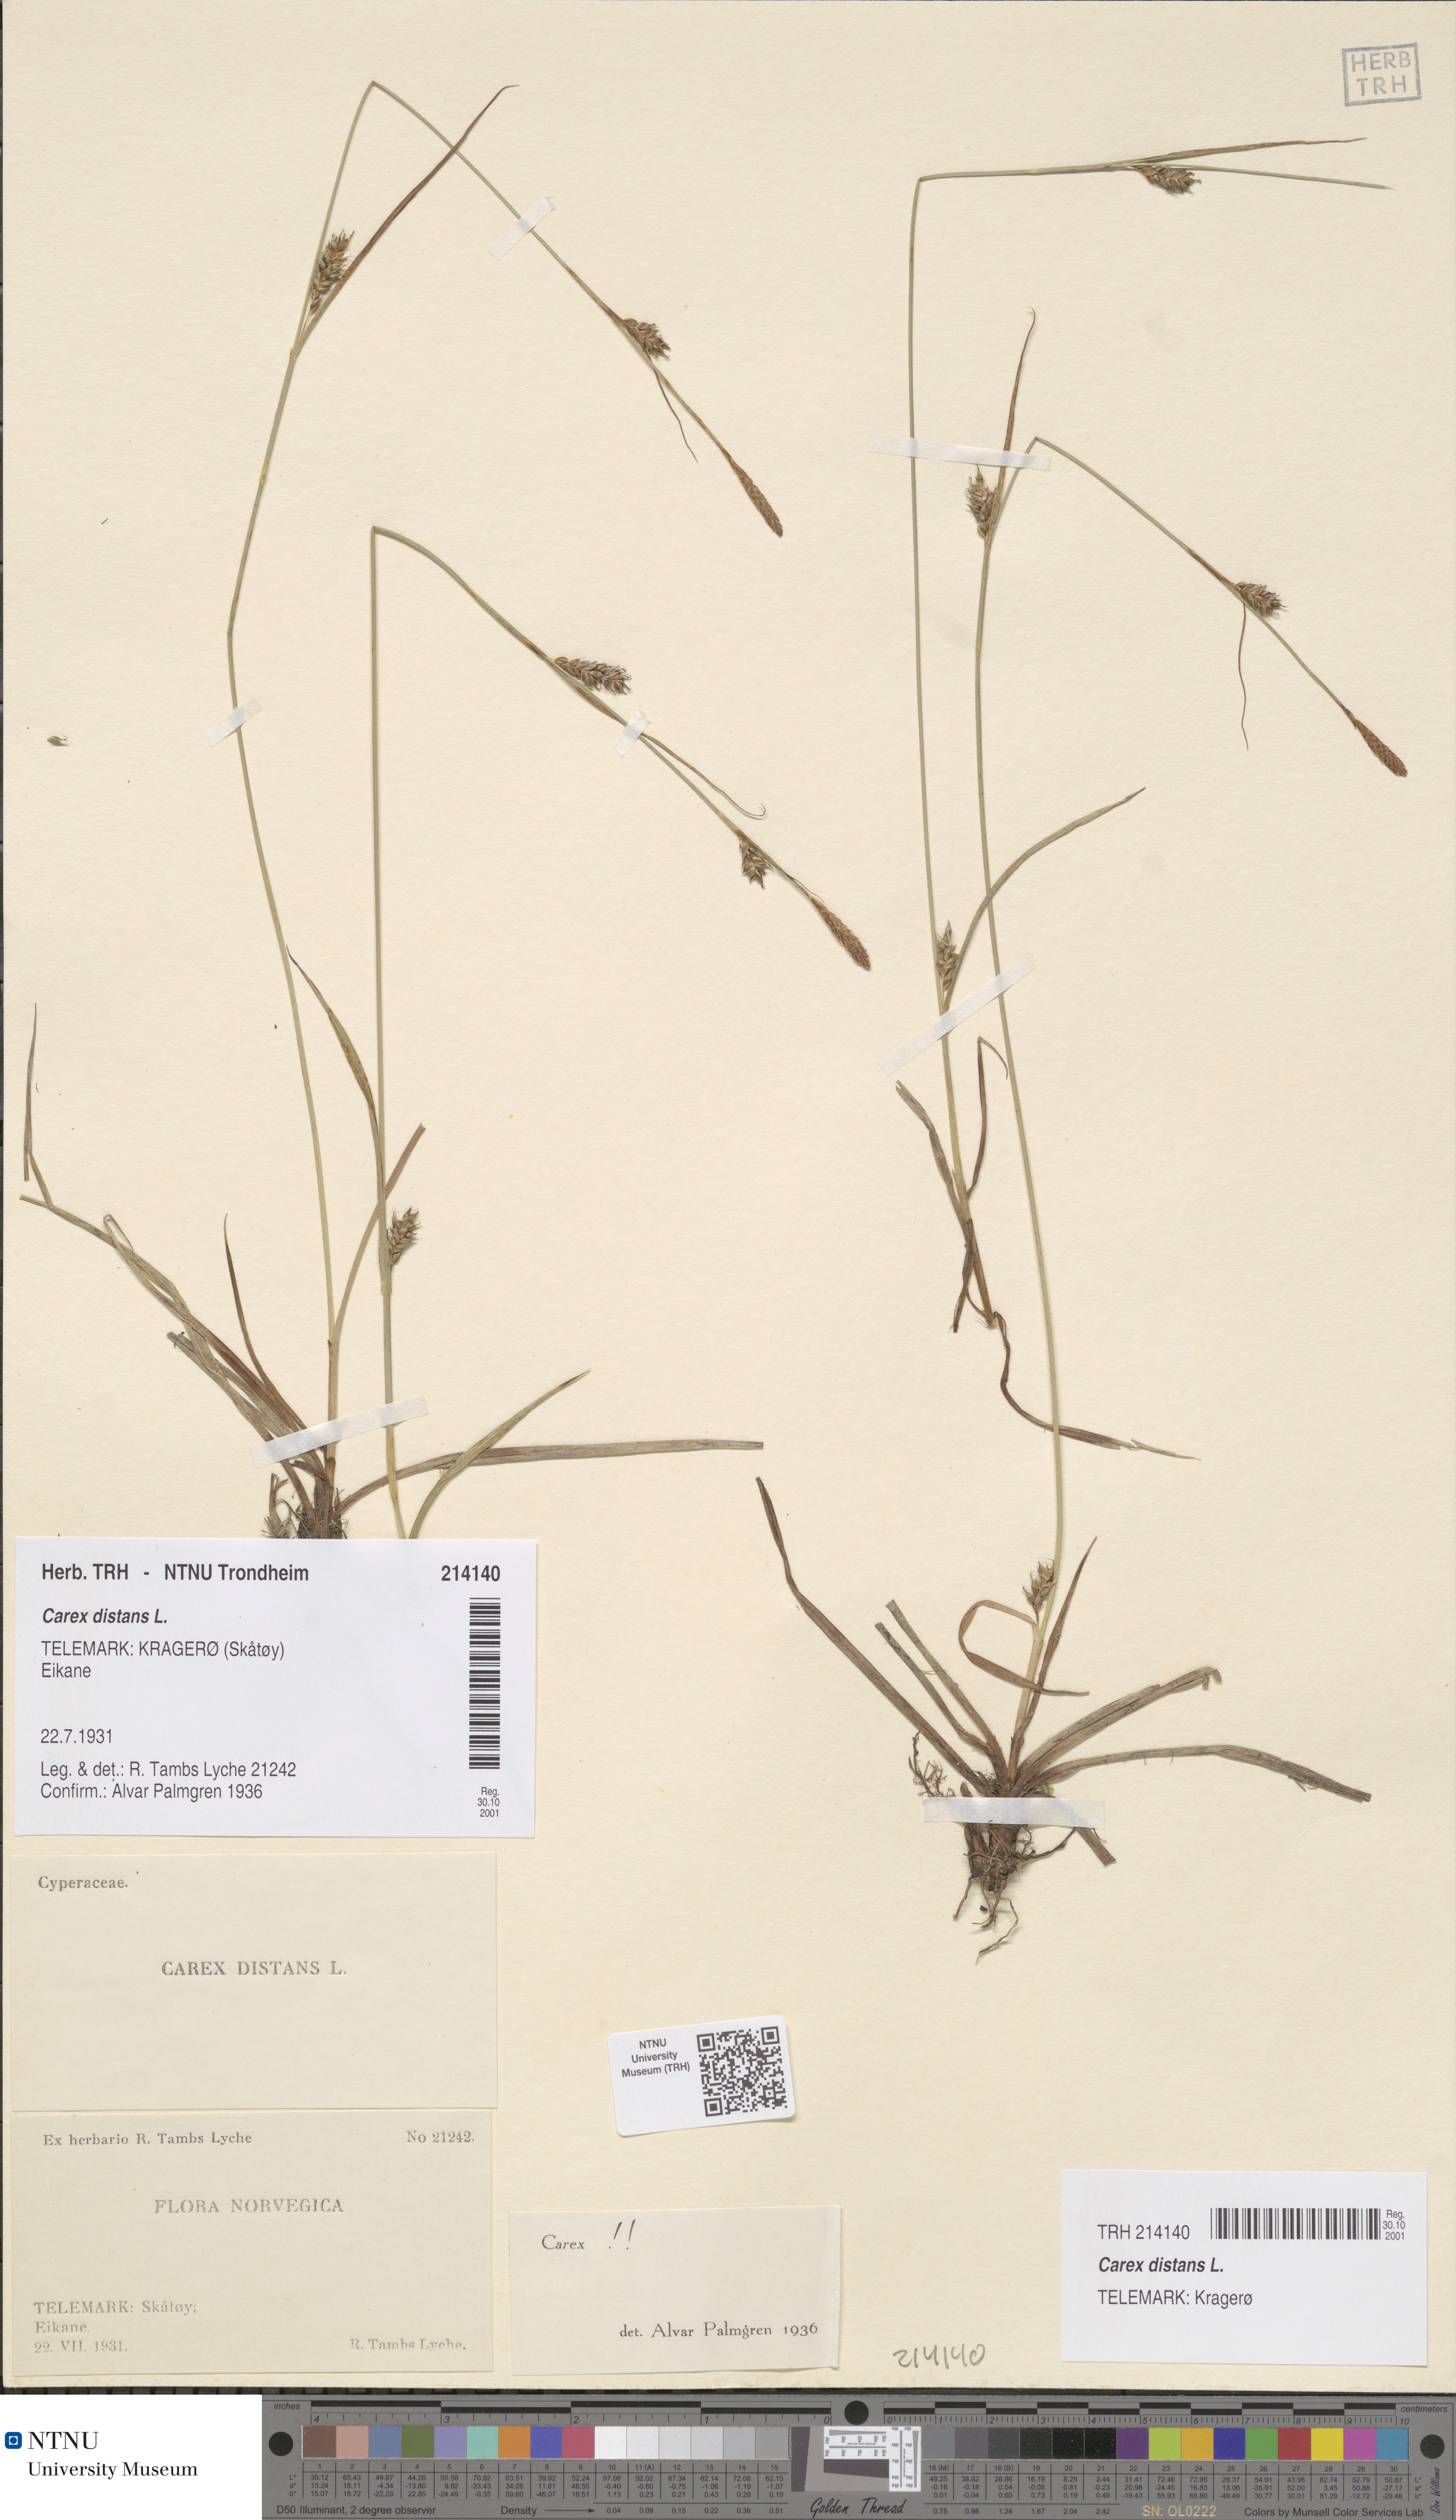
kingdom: Plantae
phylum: Tracheophyta
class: Liliopsida
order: Poales
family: Cyperaceae
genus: Carex
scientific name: Carex distans
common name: Distant sedge
